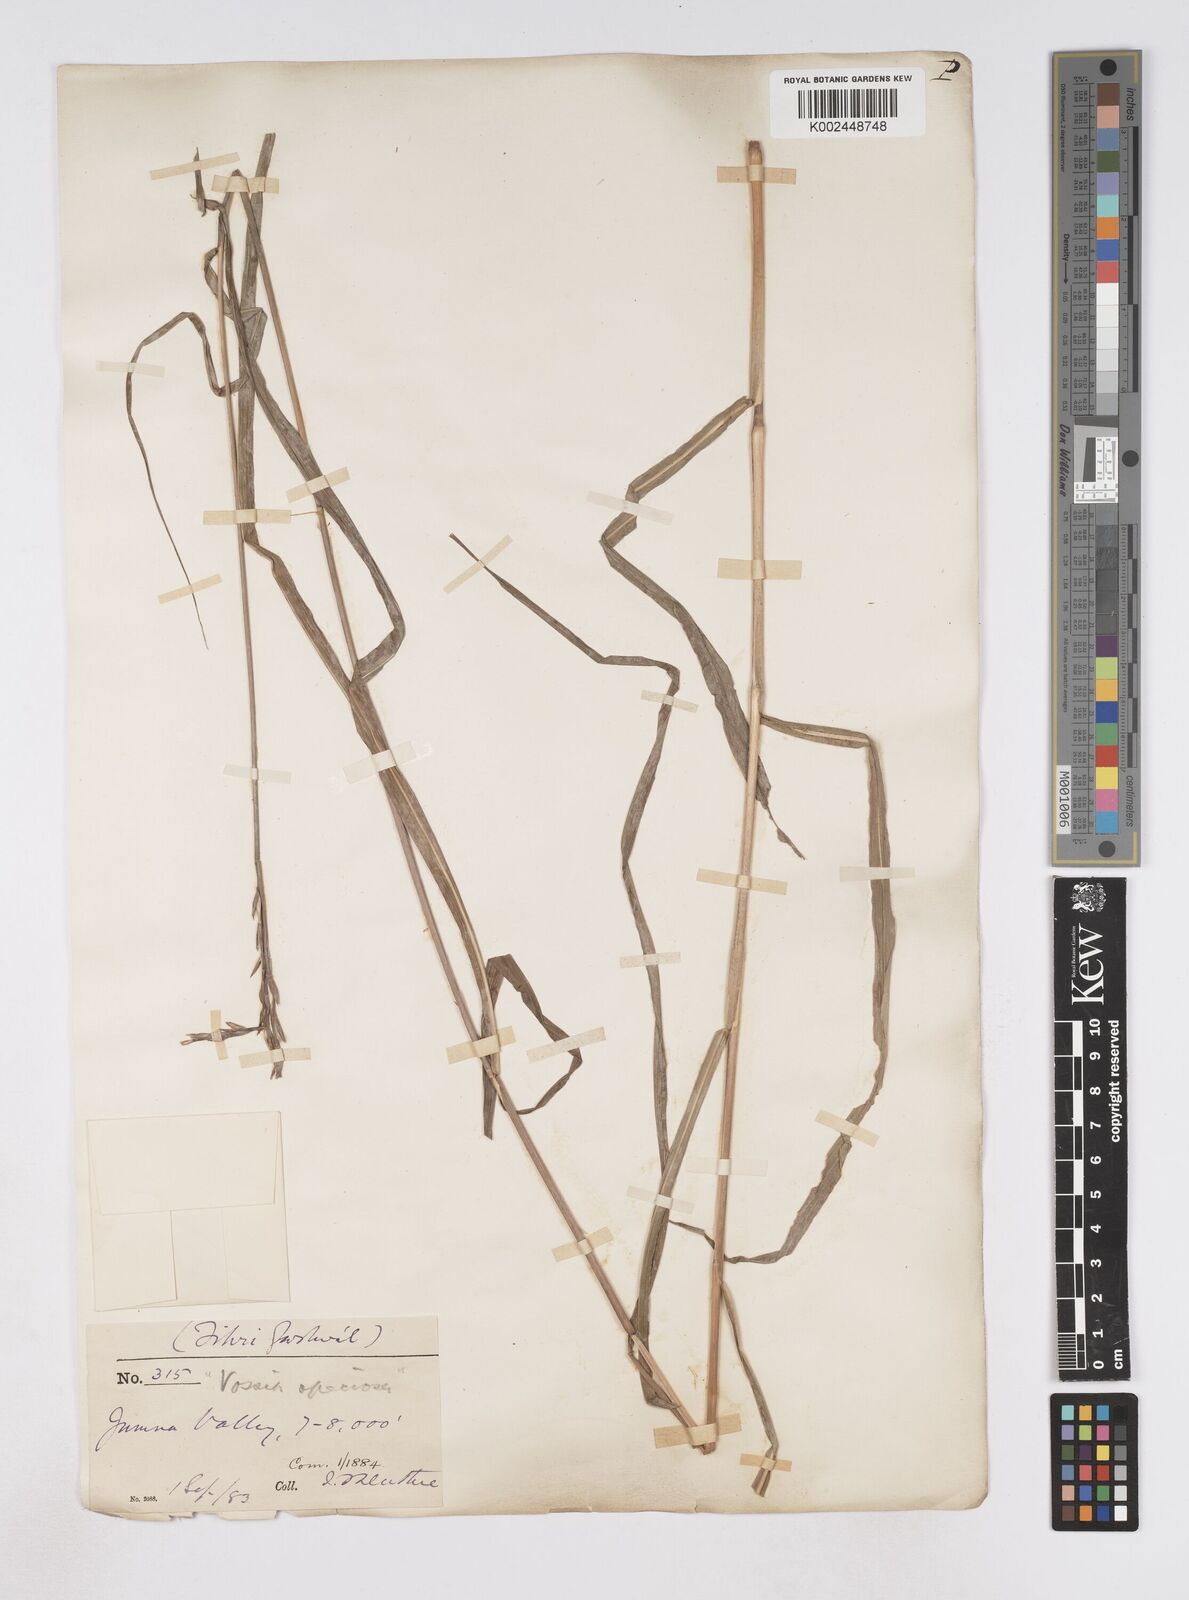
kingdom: Plantae
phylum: Tracheophyta
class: Liliopsida
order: Poales
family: Poaceae
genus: Phacelurus
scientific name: Phacelurus speciosus
